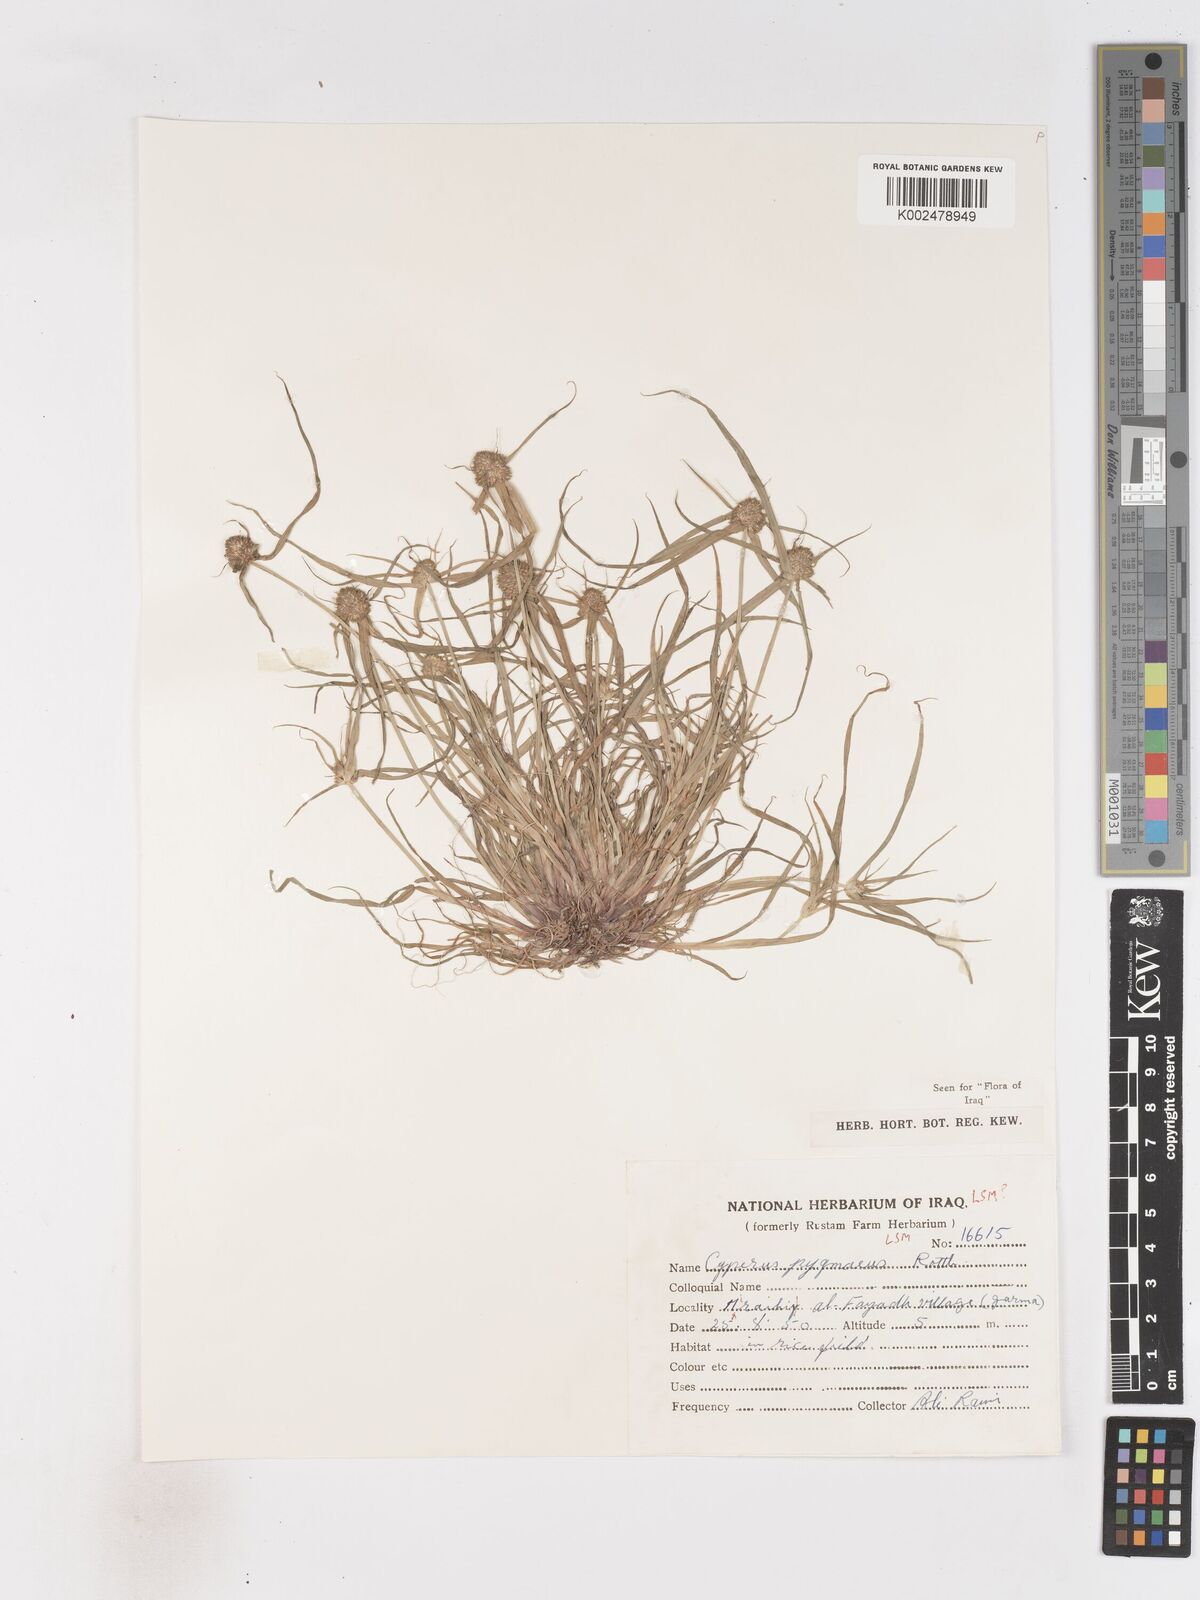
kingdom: Plantae
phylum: Tracheophyta
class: Liliopsida
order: Poales
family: Cyperaceae
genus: Cyperus
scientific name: Cyperus michelianus
